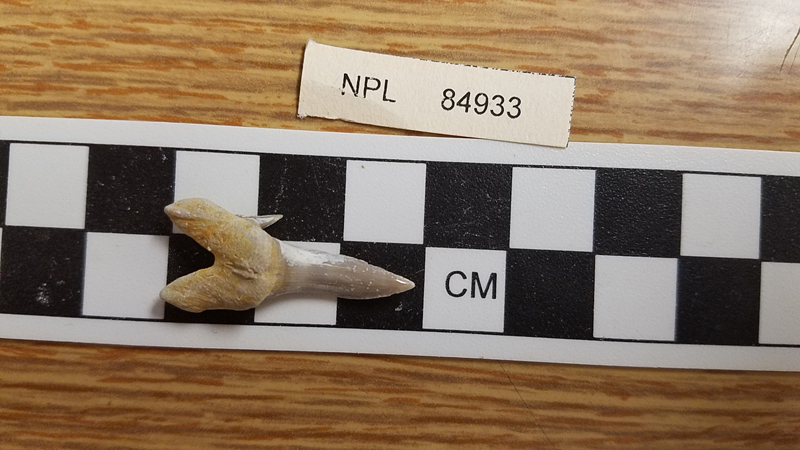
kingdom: Animalia
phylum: Chordata
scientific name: Chordata
